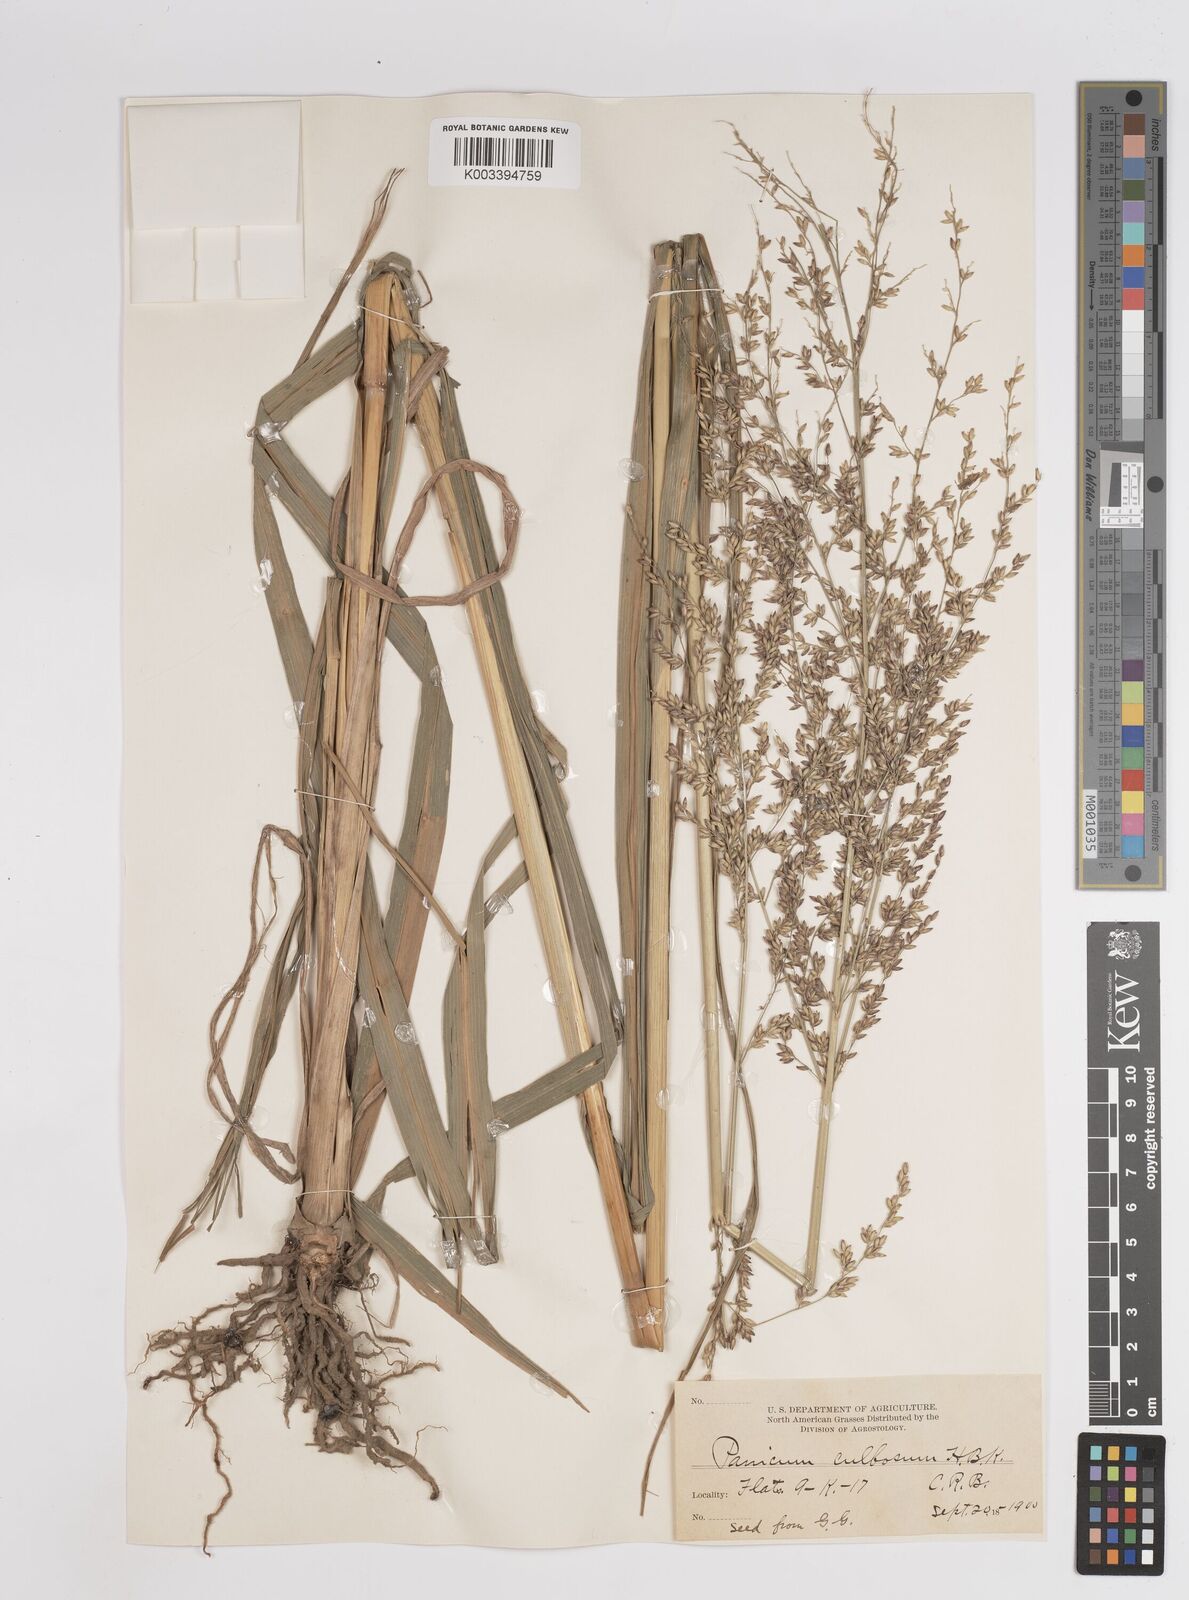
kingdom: Plantae
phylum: Tracheophyta
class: Liliopsida
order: Poales
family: Poaceae
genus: Zuloagaea
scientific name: Zuloagaea bulbosa
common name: Canyon panic grass
